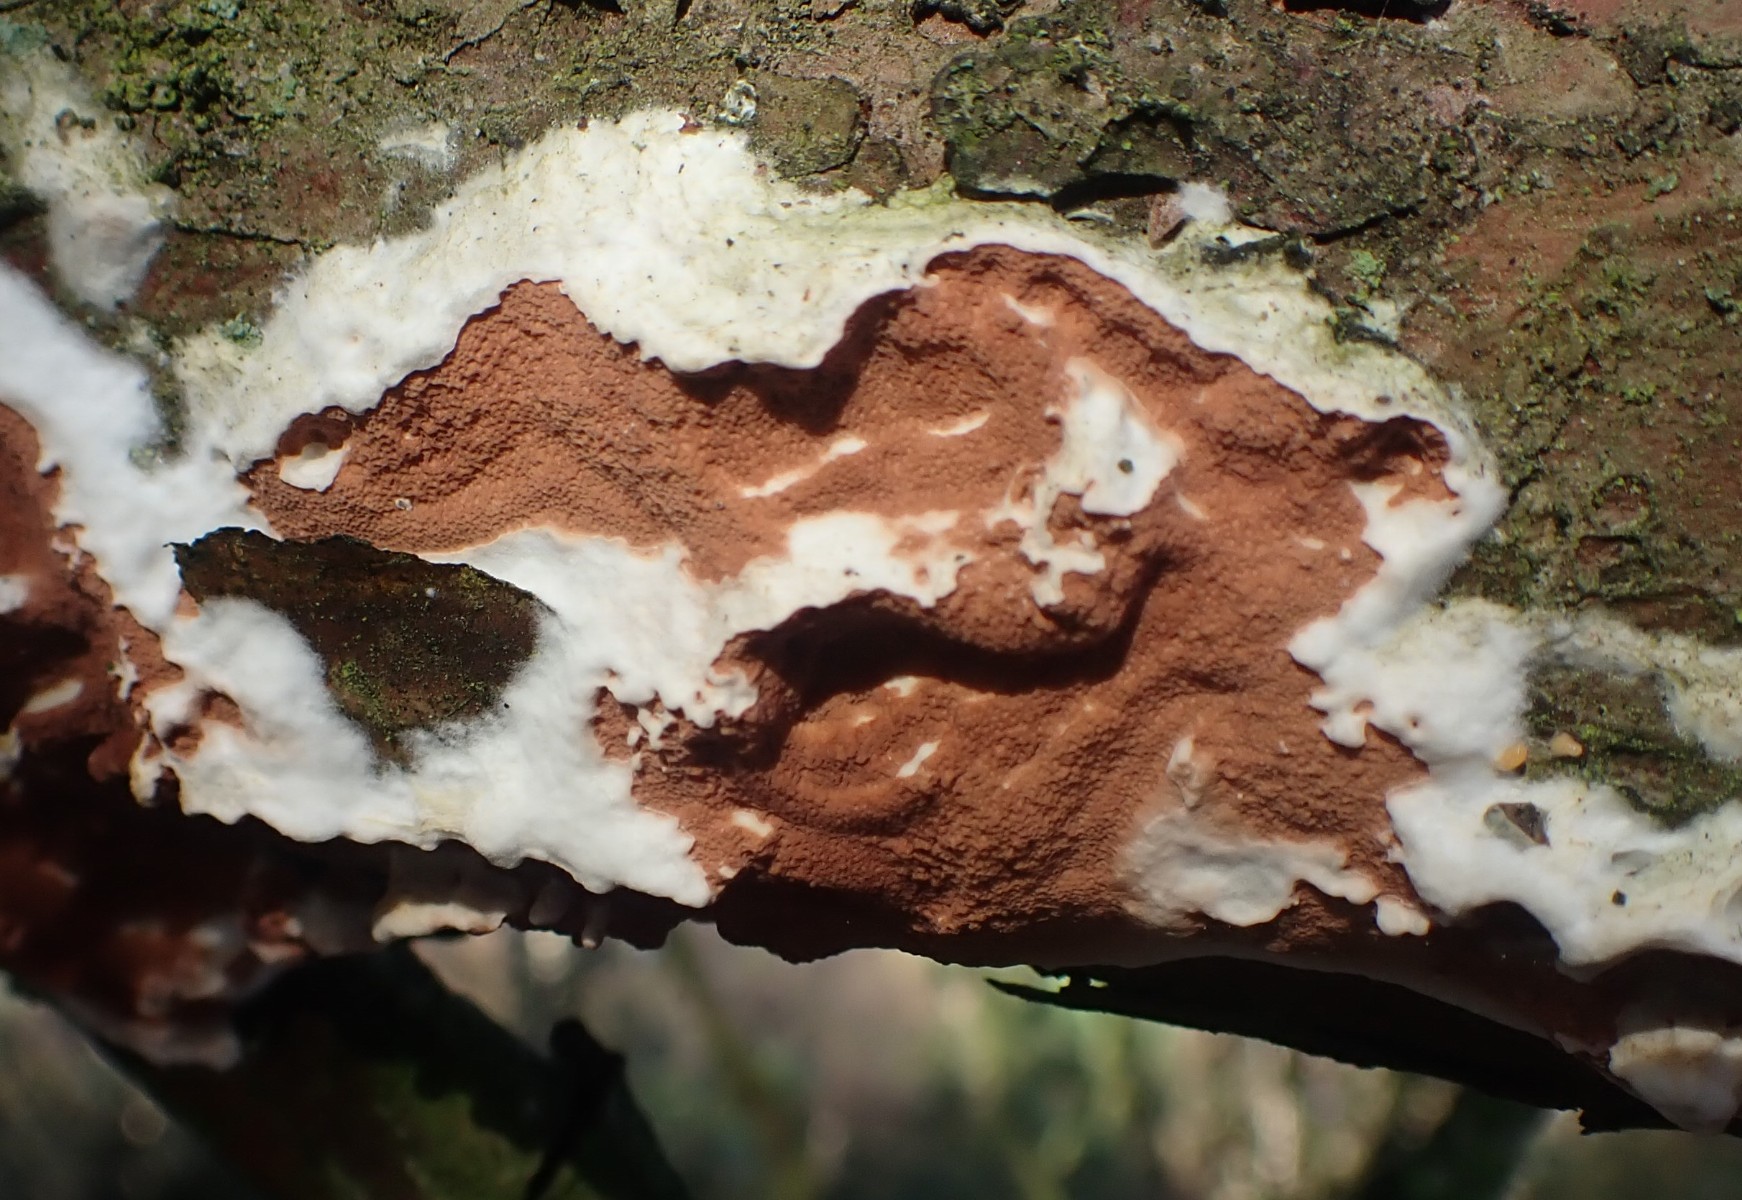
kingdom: Fungi
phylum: Basidiomycota
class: Agaricomycetes
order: Polyporales
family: Irpicaceae
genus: Meruliopsis
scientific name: Meruliopsis taxicola
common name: purpurbrun foldporesvamp
